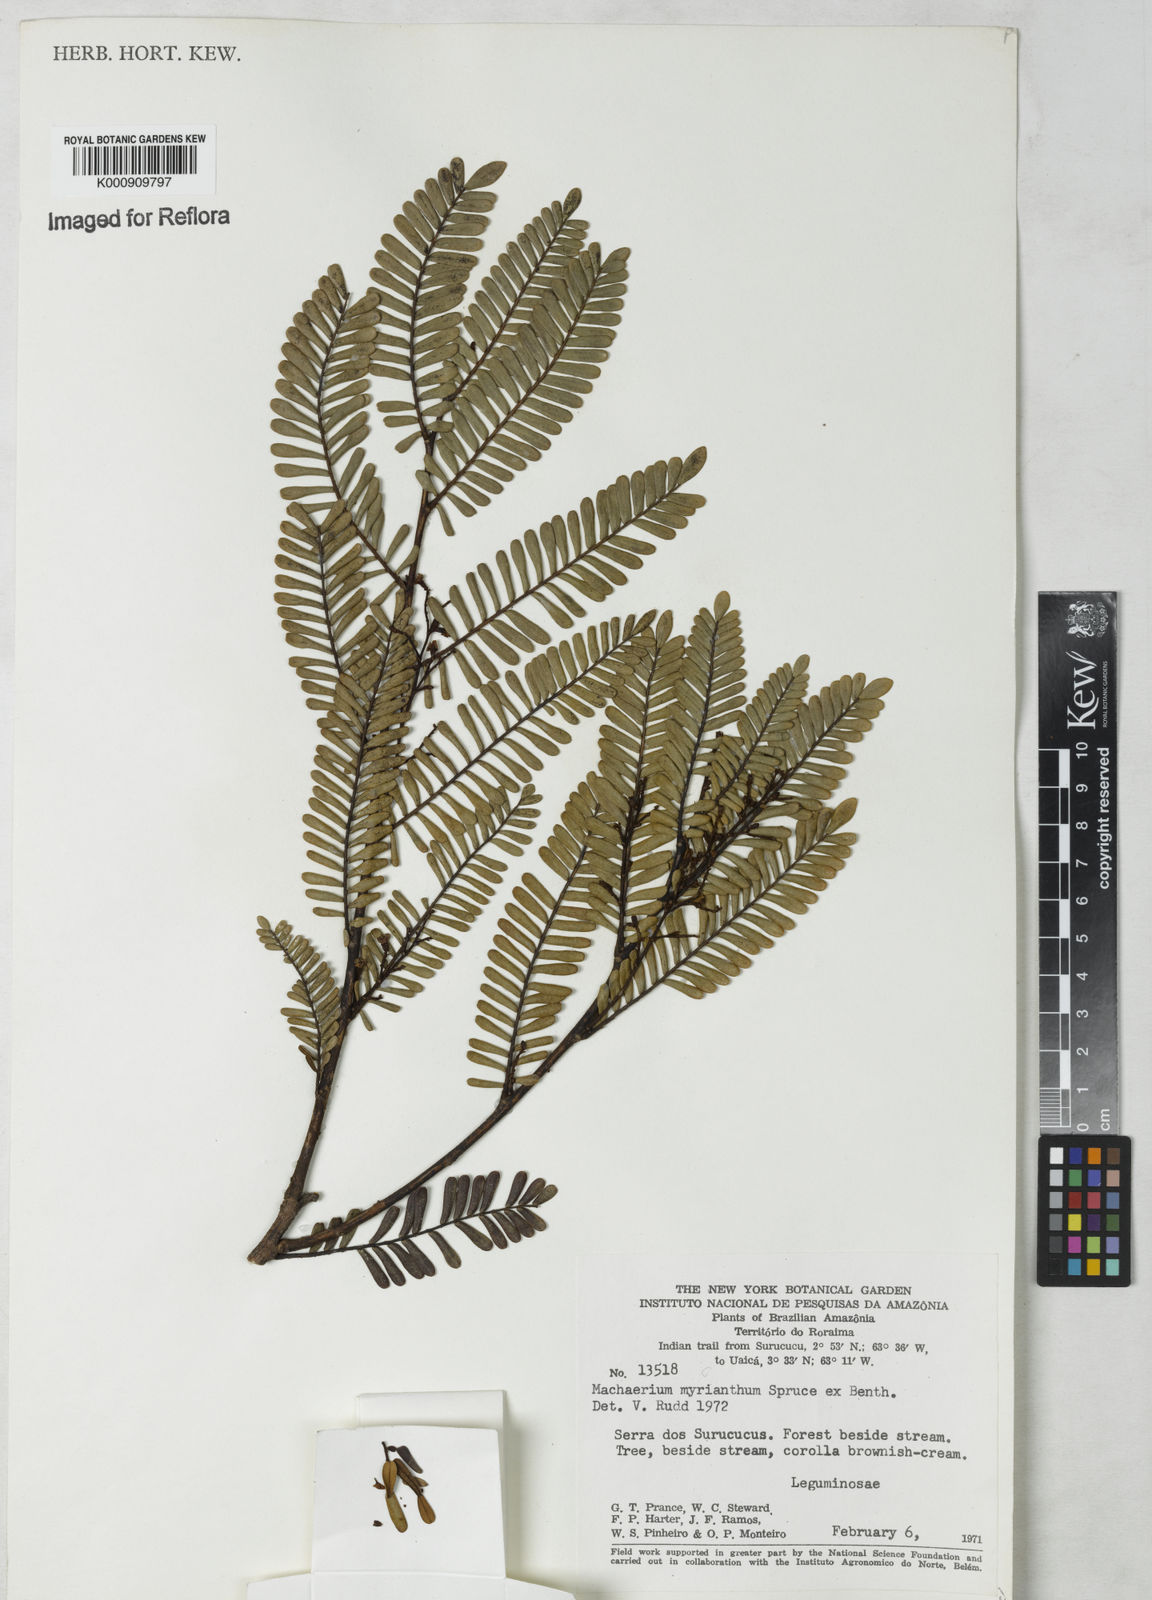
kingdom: Plantae
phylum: Tracheophyta
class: Magnoliopsida
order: Fabales
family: Fabaceae
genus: Machaerium
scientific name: Machaerium myrianthum
